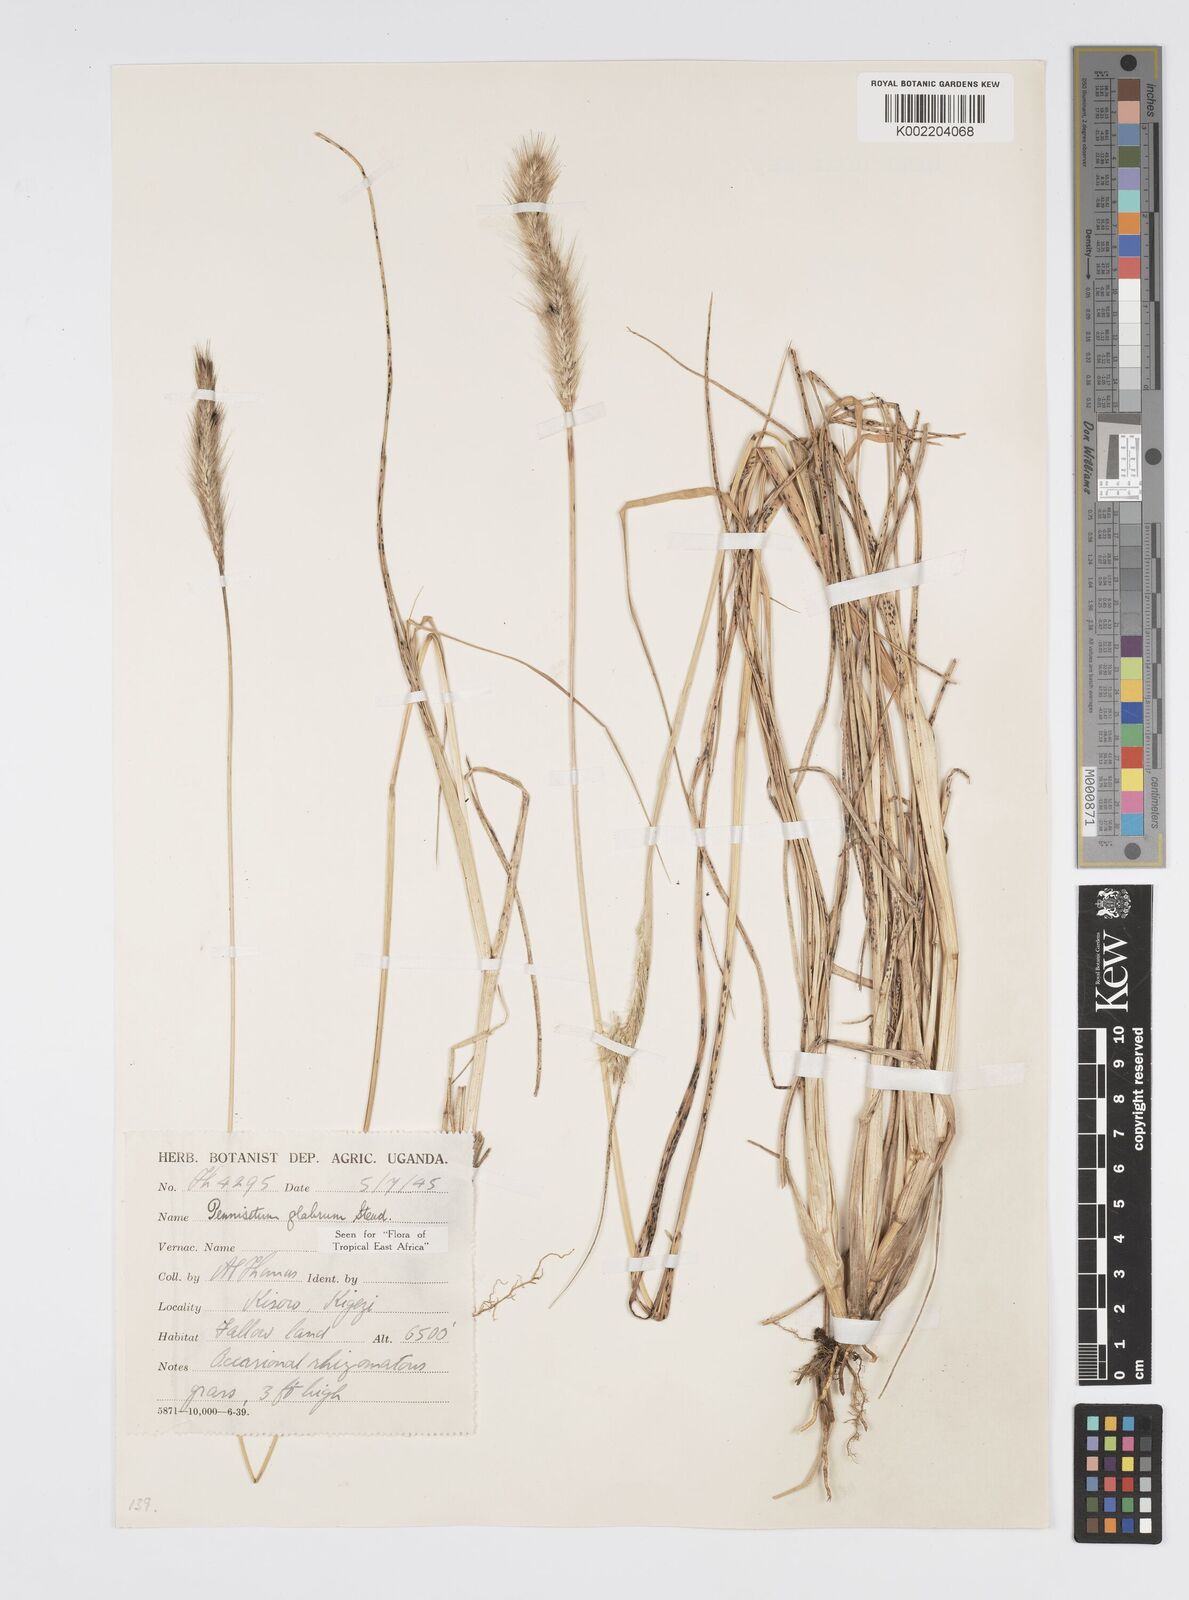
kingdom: Plantae
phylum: Tracheophyta
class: Liliopsida
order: Poales
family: Poaceae
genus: Cenchrus
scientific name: Cenchrus geniculatus
